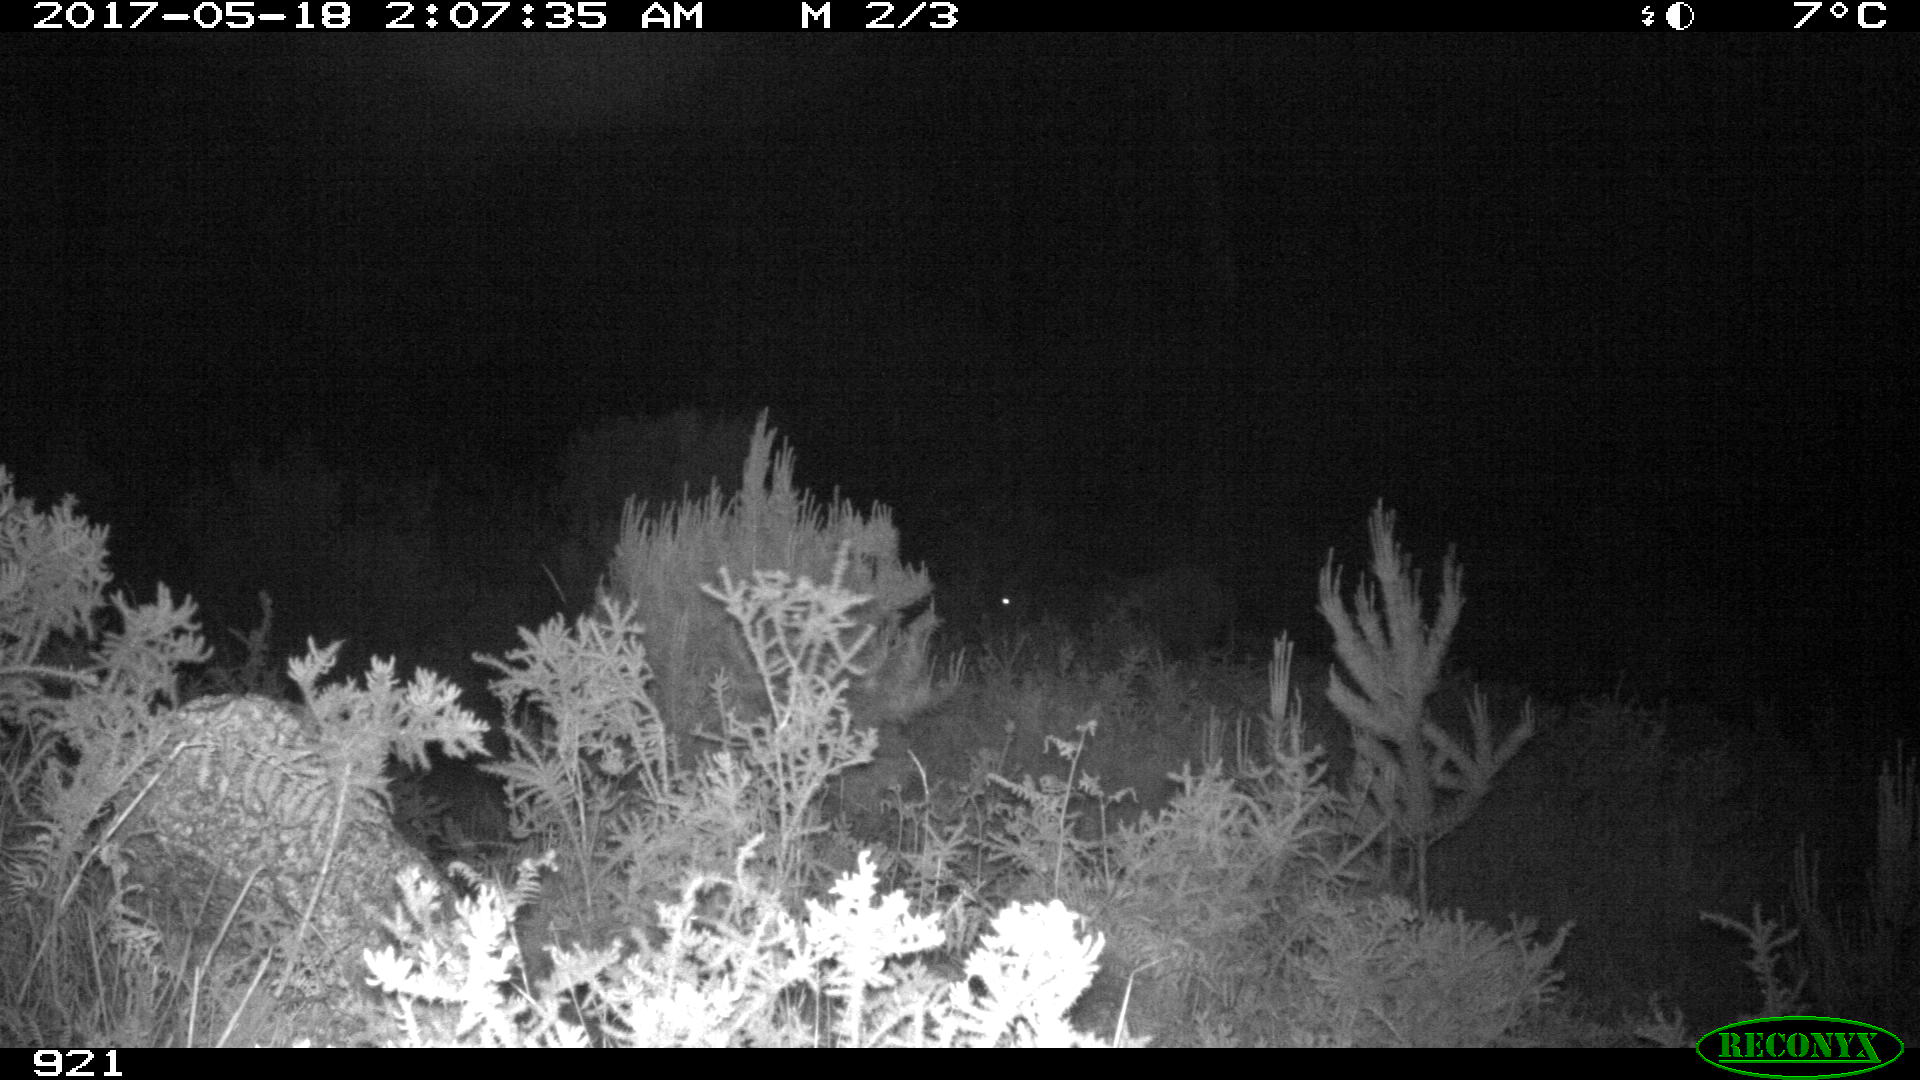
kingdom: Animalia
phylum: Chordata
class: Mammalia
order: Perissodactyla
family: Equidae
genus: Equus
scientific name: Equus caballus
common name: Horse
